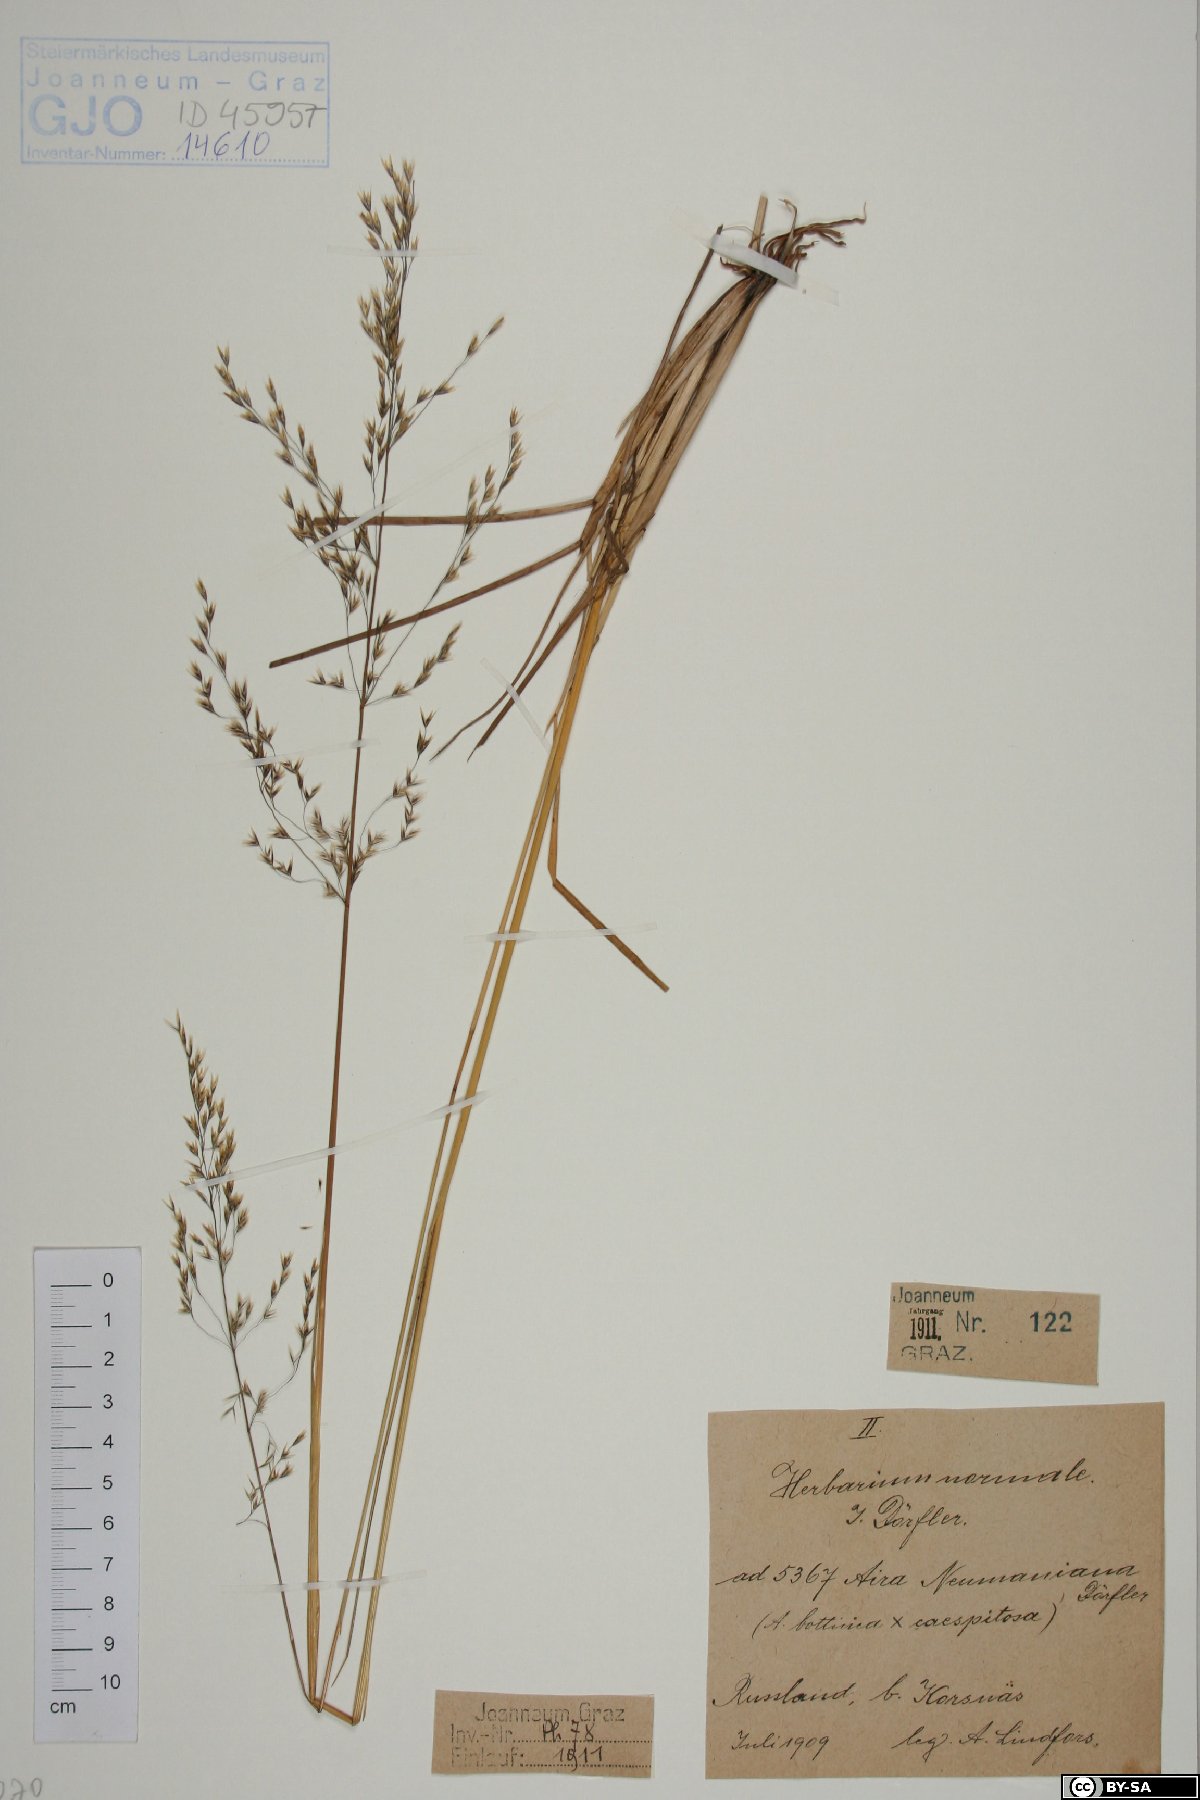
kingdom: Plantae
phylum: Tracheophyta
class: Liliopsida
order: Poales
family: Poaceae
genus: Deschampsia
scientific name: Deschampsia cespitosa
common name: Tufted hair-grass
